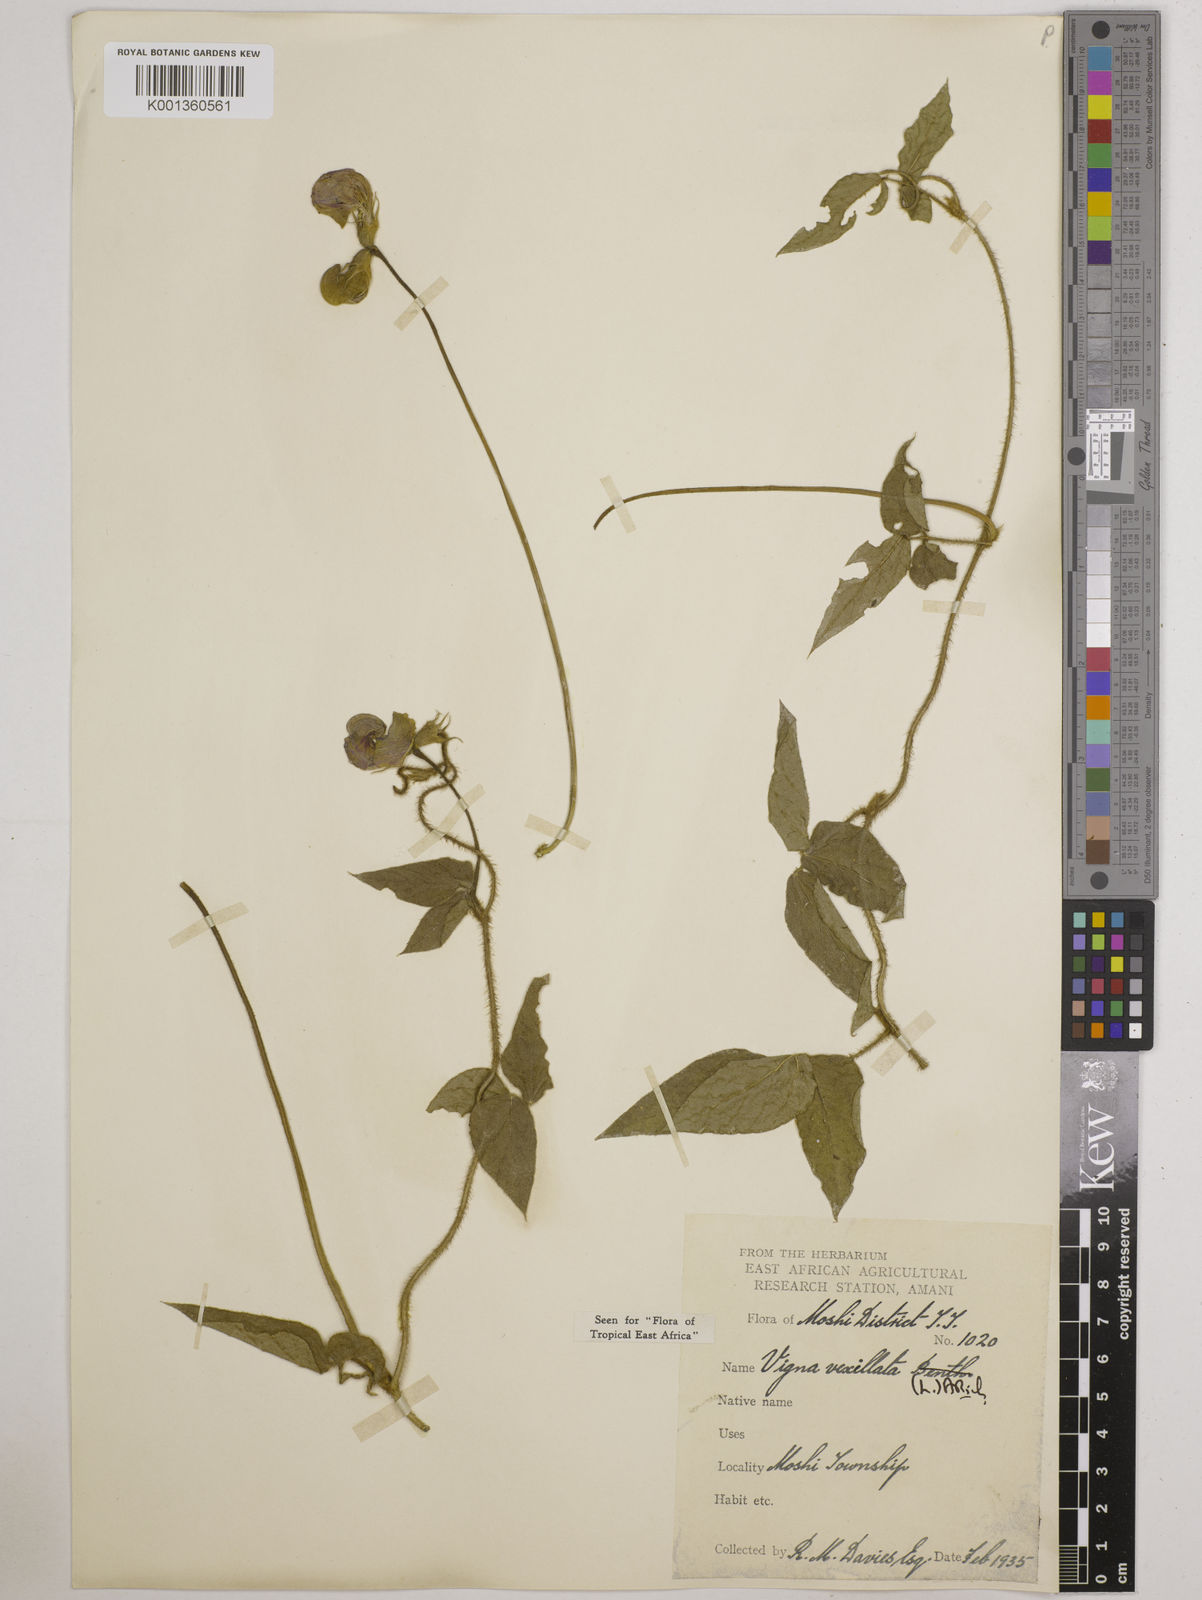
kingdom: Plantae
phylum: Tracheophyta
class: Magnoliopsida
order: Fabales
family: Fabaceae
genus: Vigna
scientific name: Vigna vexillata
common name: Zombi pea
